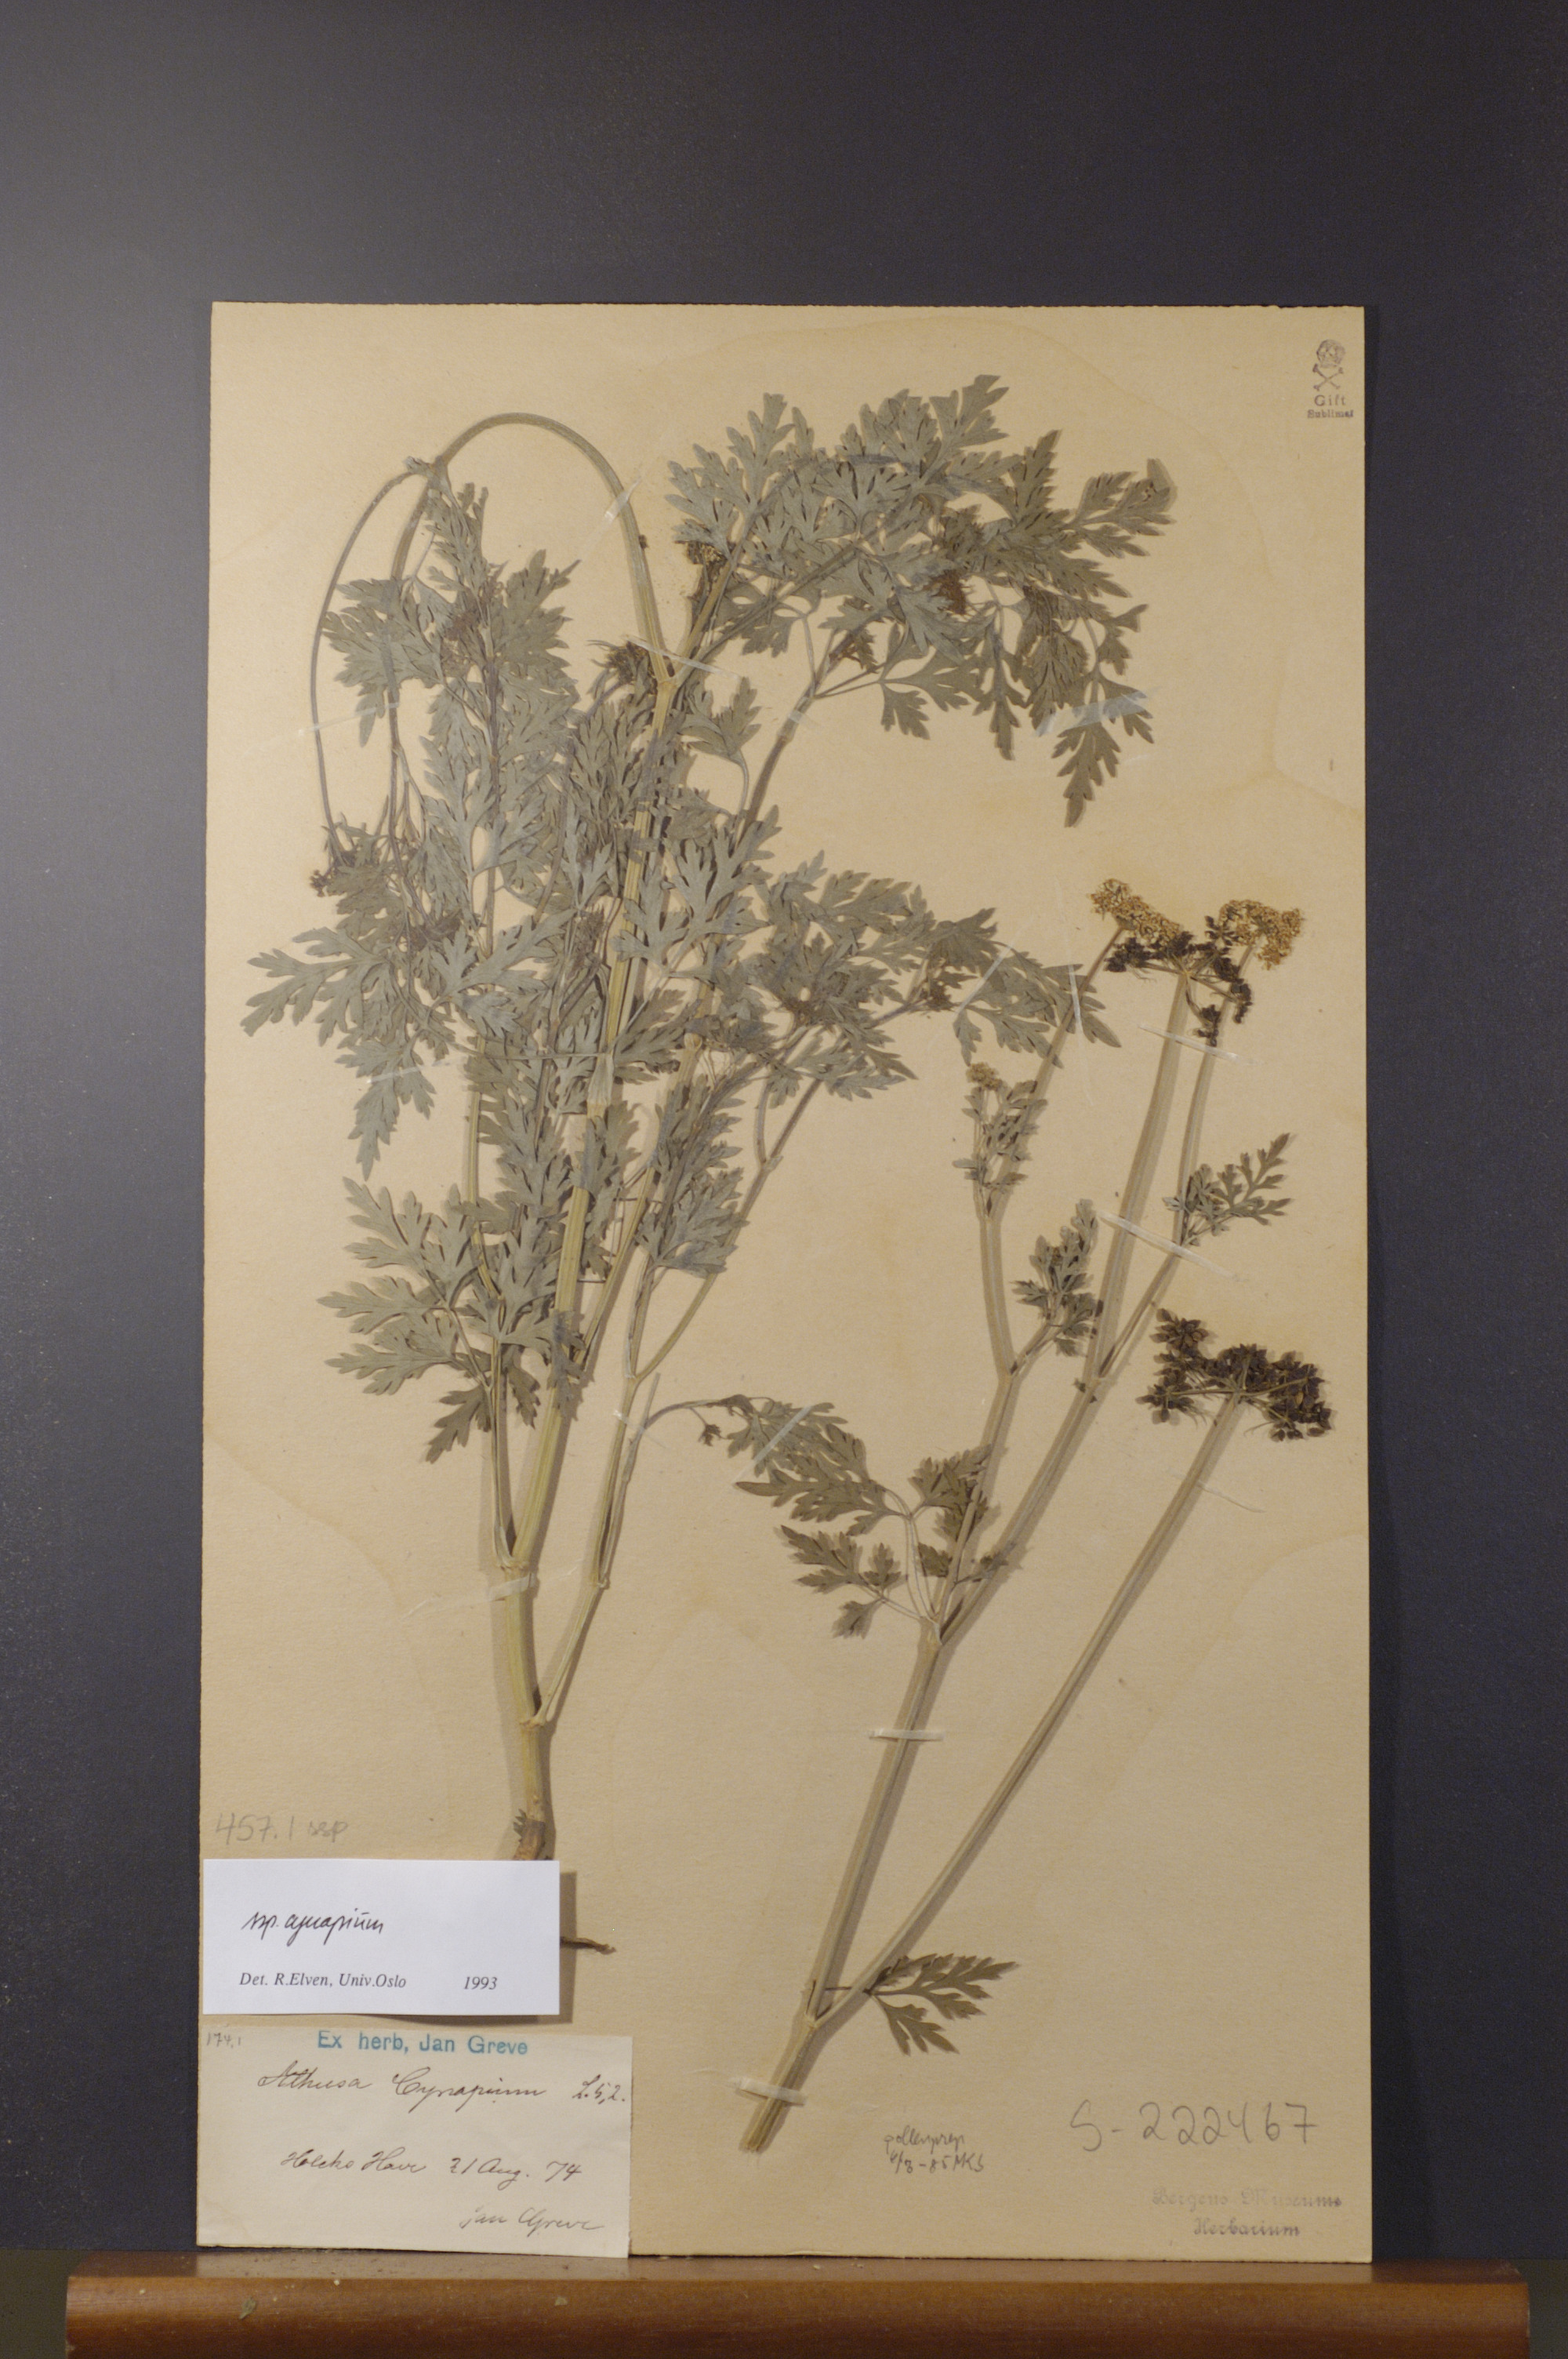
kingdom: Plantae
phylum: Tracheophyta
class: Magnoliopsida
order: Apiales
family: Apiaceae
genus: Aethusa
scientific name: Aethusa cynapium
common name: Fool's parsley
